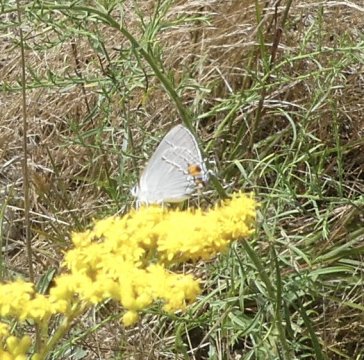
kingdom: Animalia
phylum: Arthropoda
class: Insecta
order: Lepidoptera
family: Lycaenidae
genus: Strymon
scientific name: Strymon melinus
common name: Gray Hairstreak
